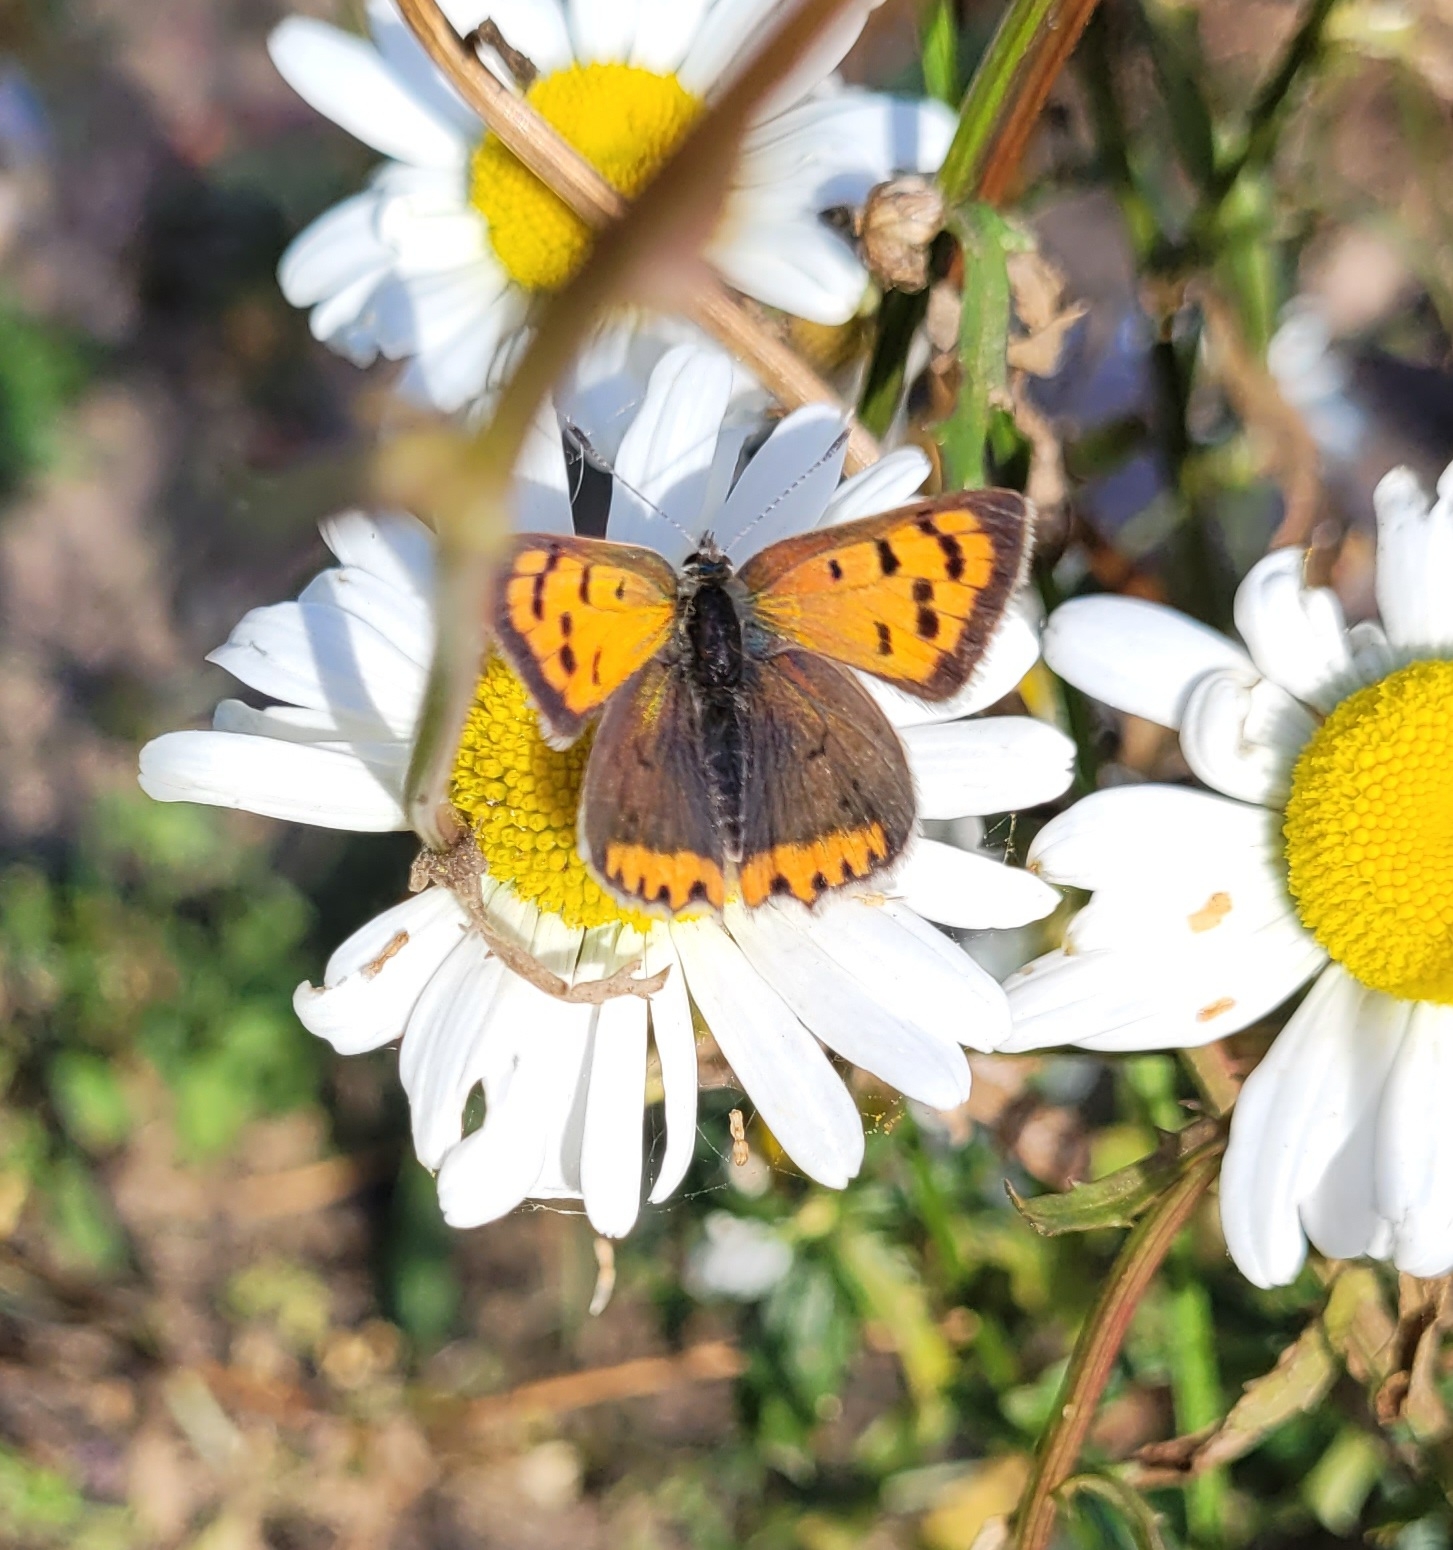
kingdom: Animalia
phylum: Arthropoda
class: Insecta
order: Lepidoptera
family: Lycaenidae
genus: Lycaena
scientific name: Lycaena phlaeas
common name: Lille ildfugl
